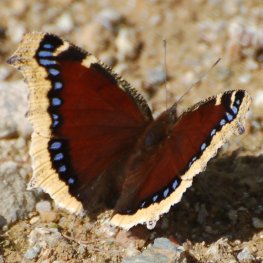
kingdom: Animalia
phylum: Arthropoda
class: Insecta
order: Lepidoptera
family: Nymphalidae
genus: Nymphalis
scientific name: Nymphalis antiopa
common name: Mourning Cloak
